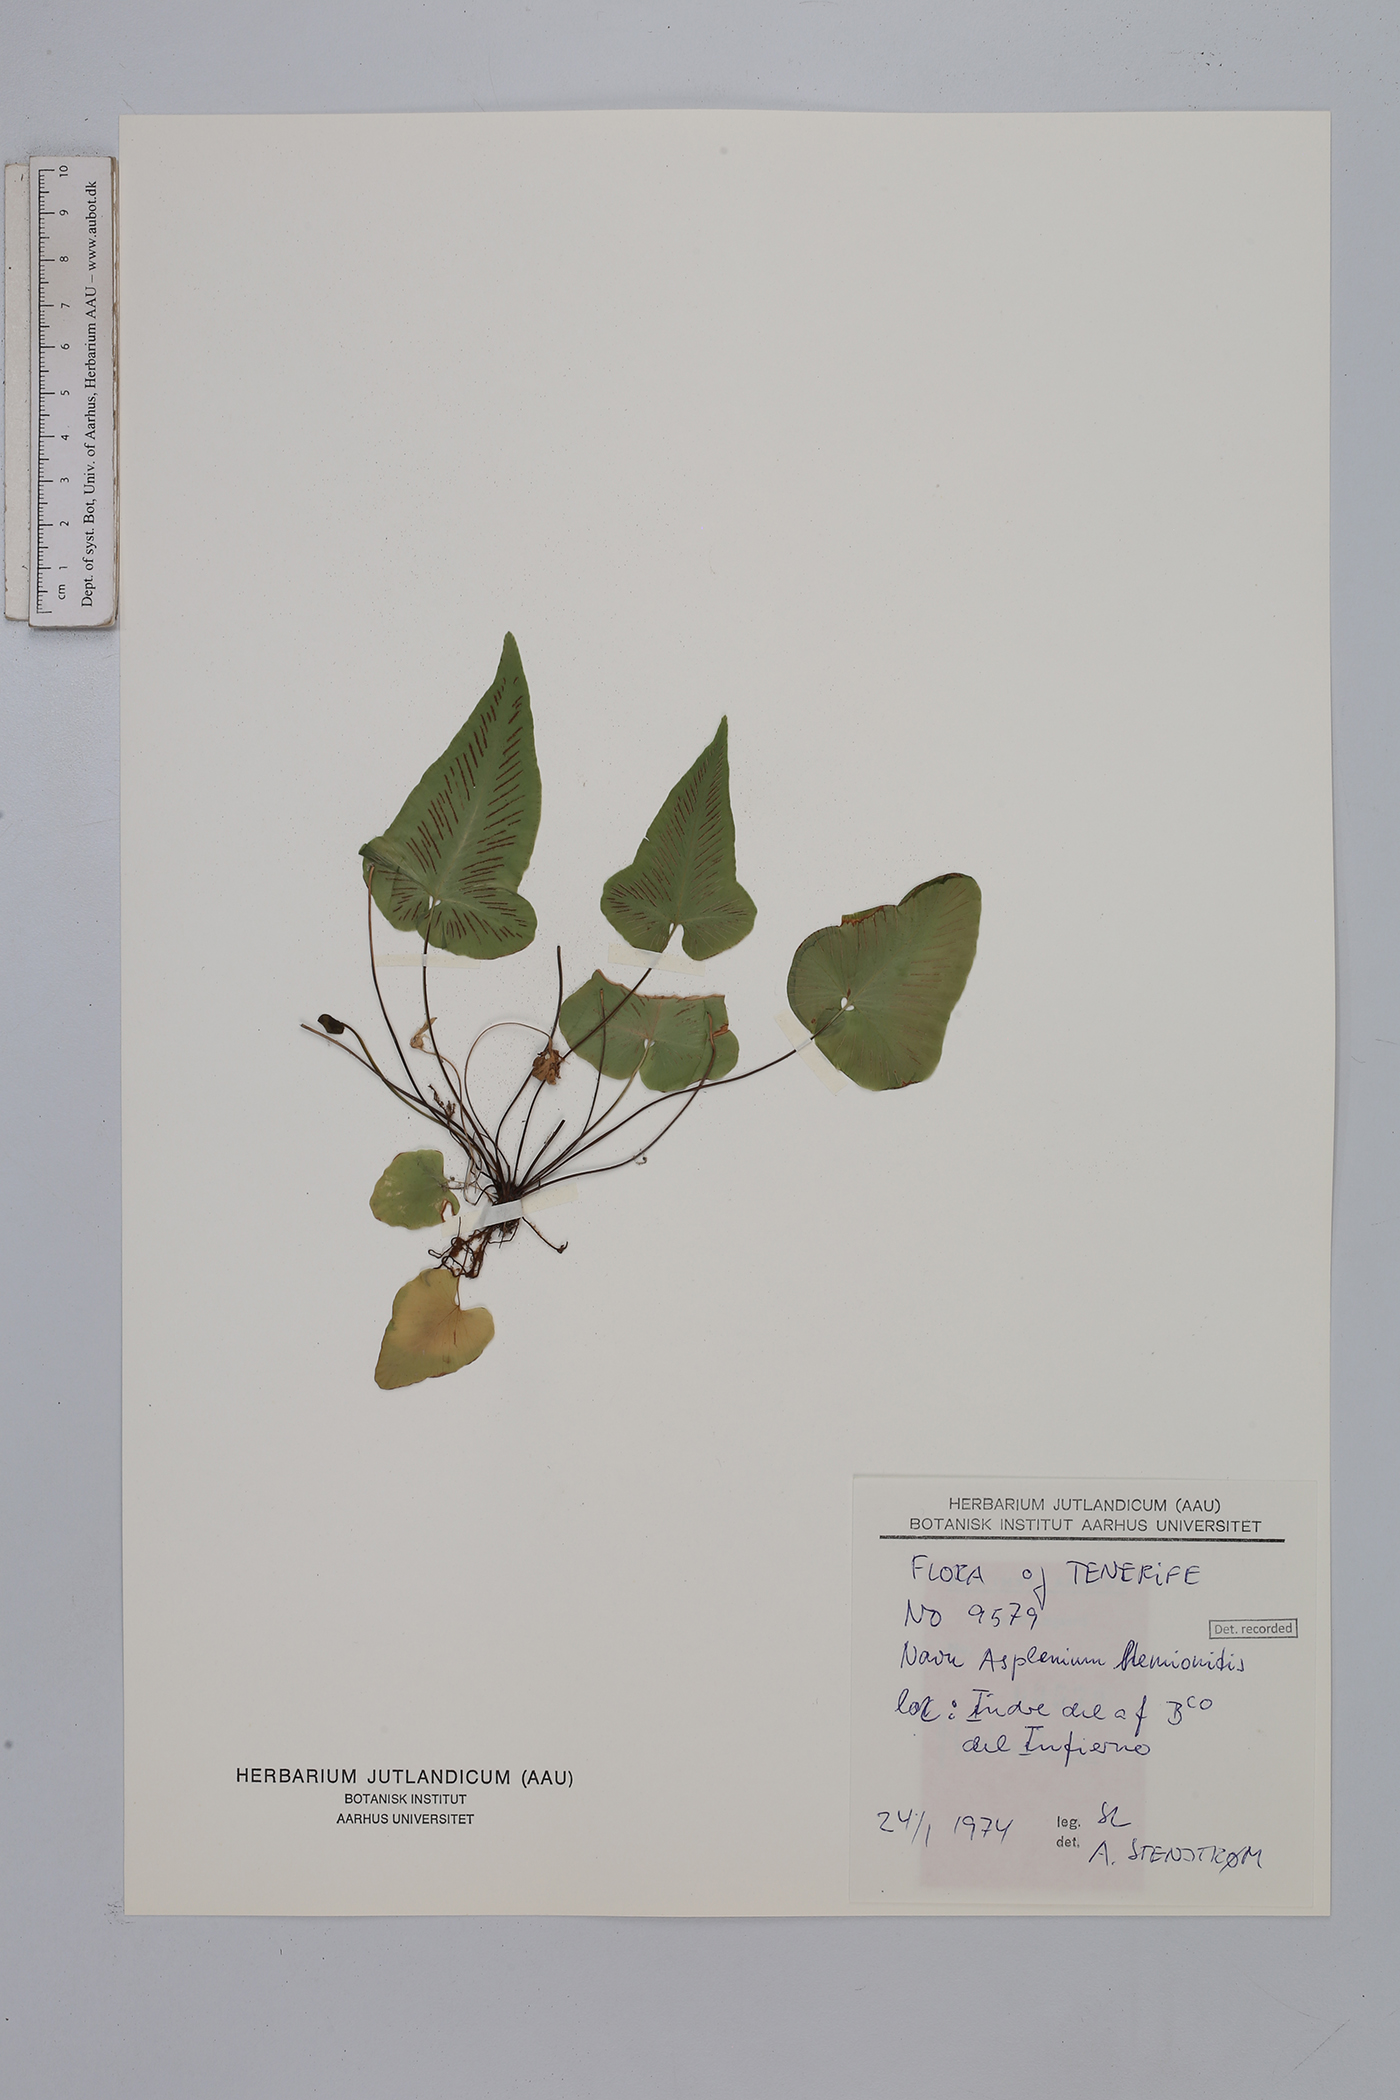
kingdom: Plantae
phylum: Tracheophyta
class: Polypodiopsida
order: Polypodiales
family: Aspleniaceae
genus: Asplenium
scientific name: Asplenium hemionitis
